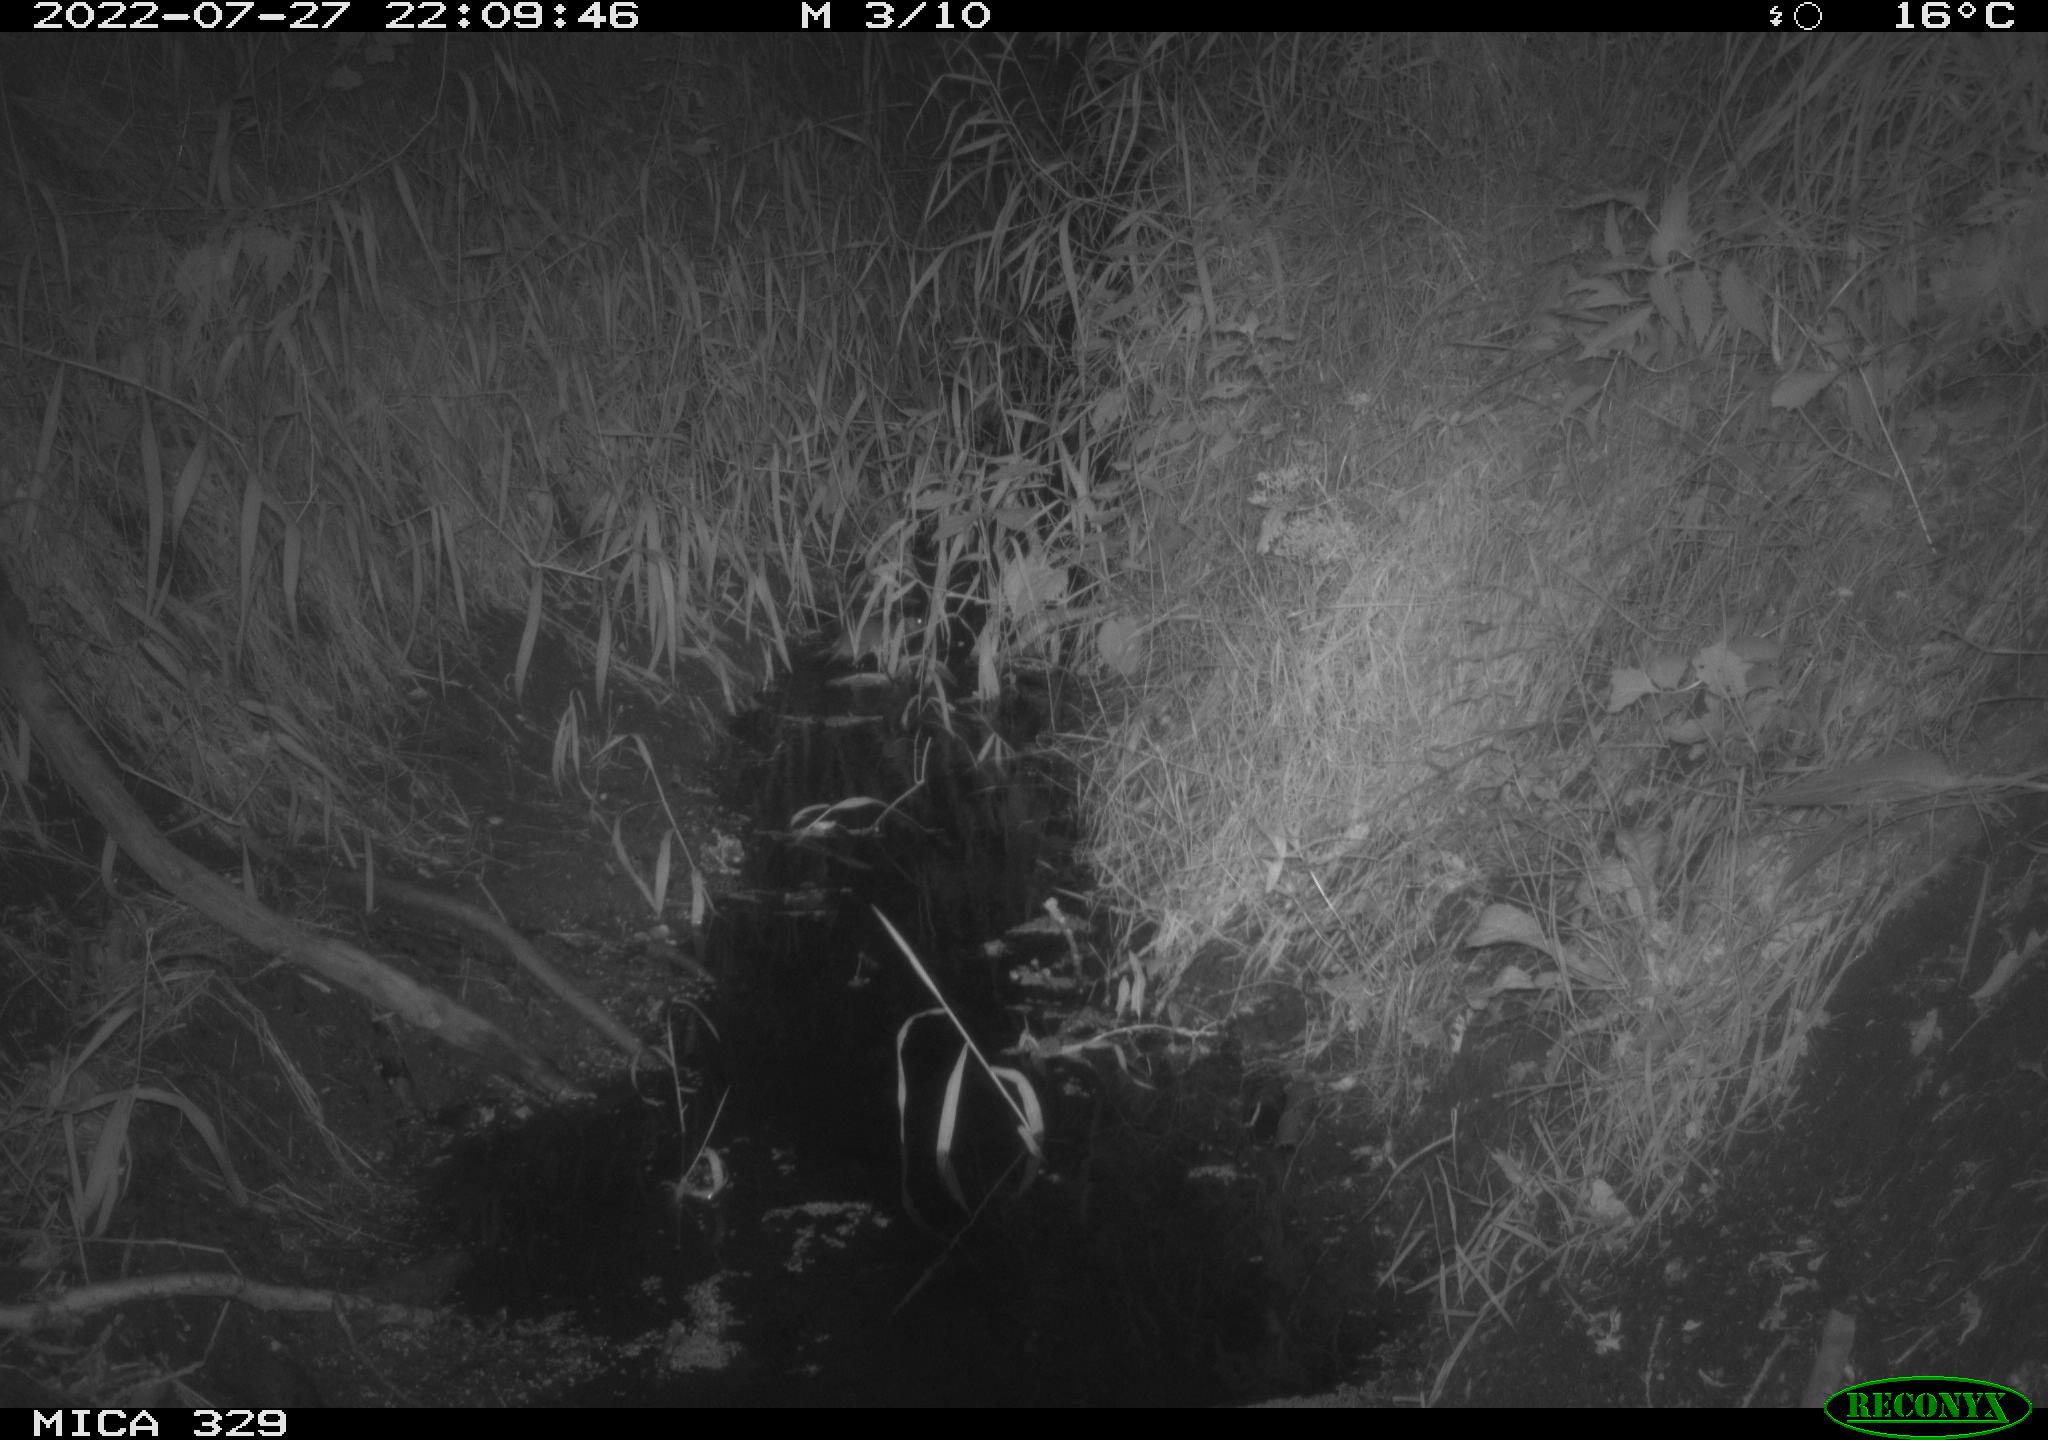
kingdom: Animalia
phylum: Chordata
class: Mammalia
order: Rodentia
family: Muridae
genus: Rattus
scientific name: Rattus norvegicus
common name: Brown rat
